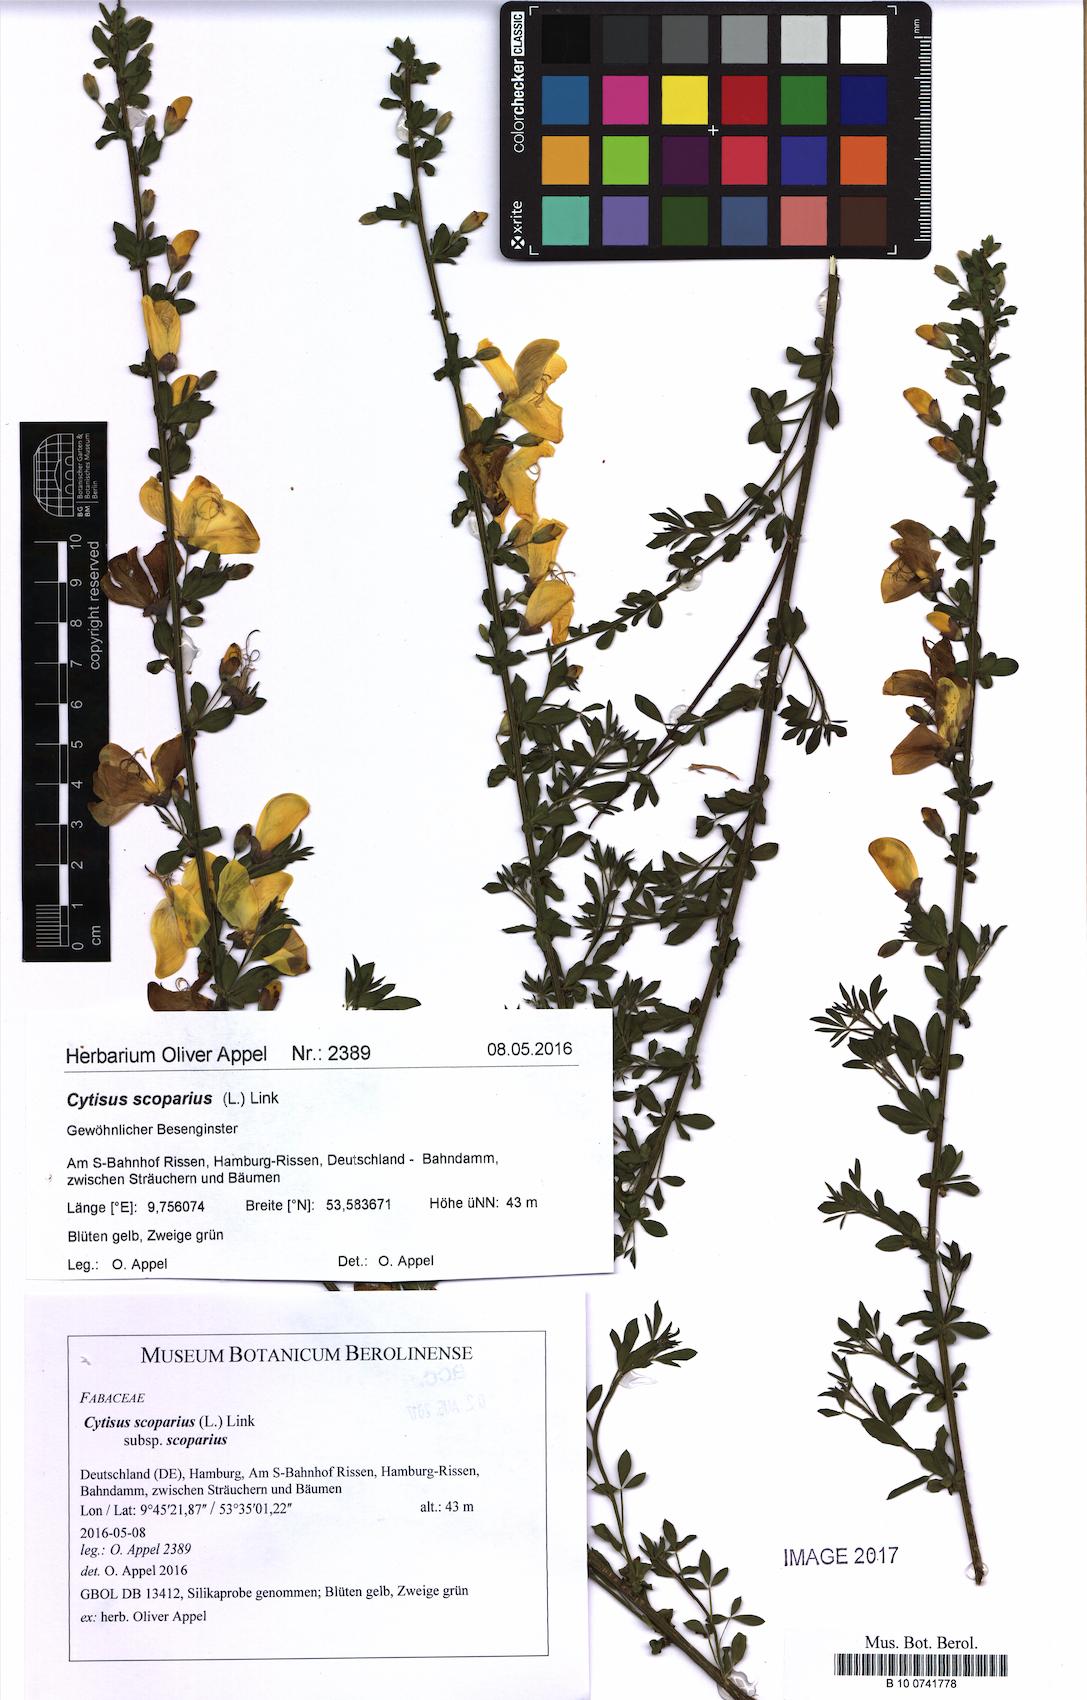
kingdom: Plantae
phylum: Tracheophyta
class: Magnoliopsida
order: Fabales
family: Fabaceae
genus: Cytisus
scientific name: Cytisus scoparius
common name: Scotch broom
